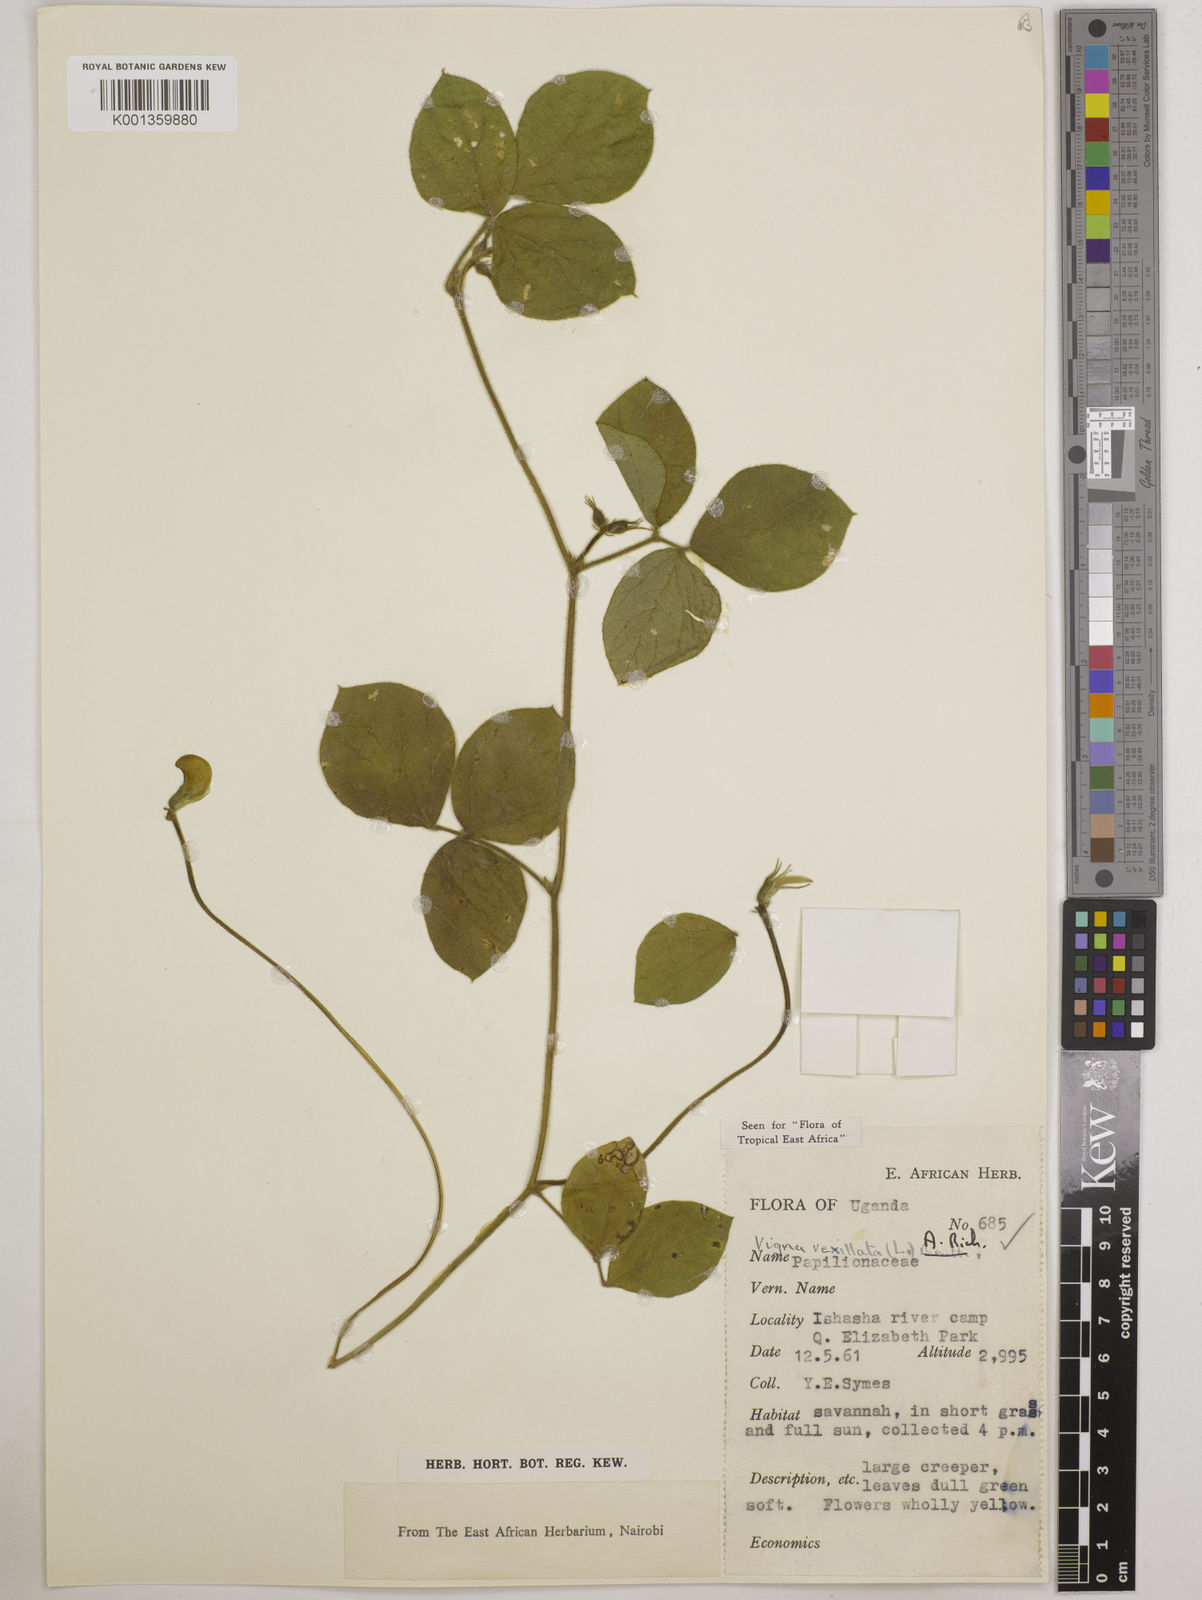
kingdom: Plantae
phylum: Tracheophyta
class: Magnoliopsida
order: Fabales
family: Fabaceae
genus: Vigna
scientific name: Vigna vexillata
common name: Zombi pea
